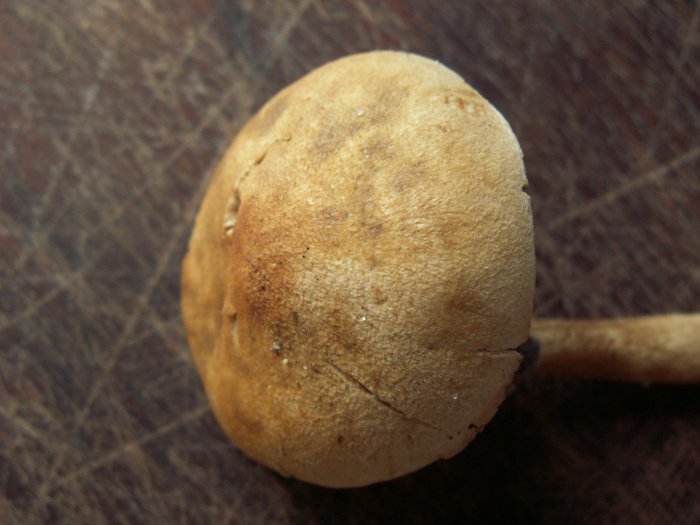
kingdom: Fungi
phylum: Basidiomycota
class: Agaricomycetes
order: Agaricales
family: Inocybaceae
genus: Inocybe
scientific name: Inocybe dulcamara
